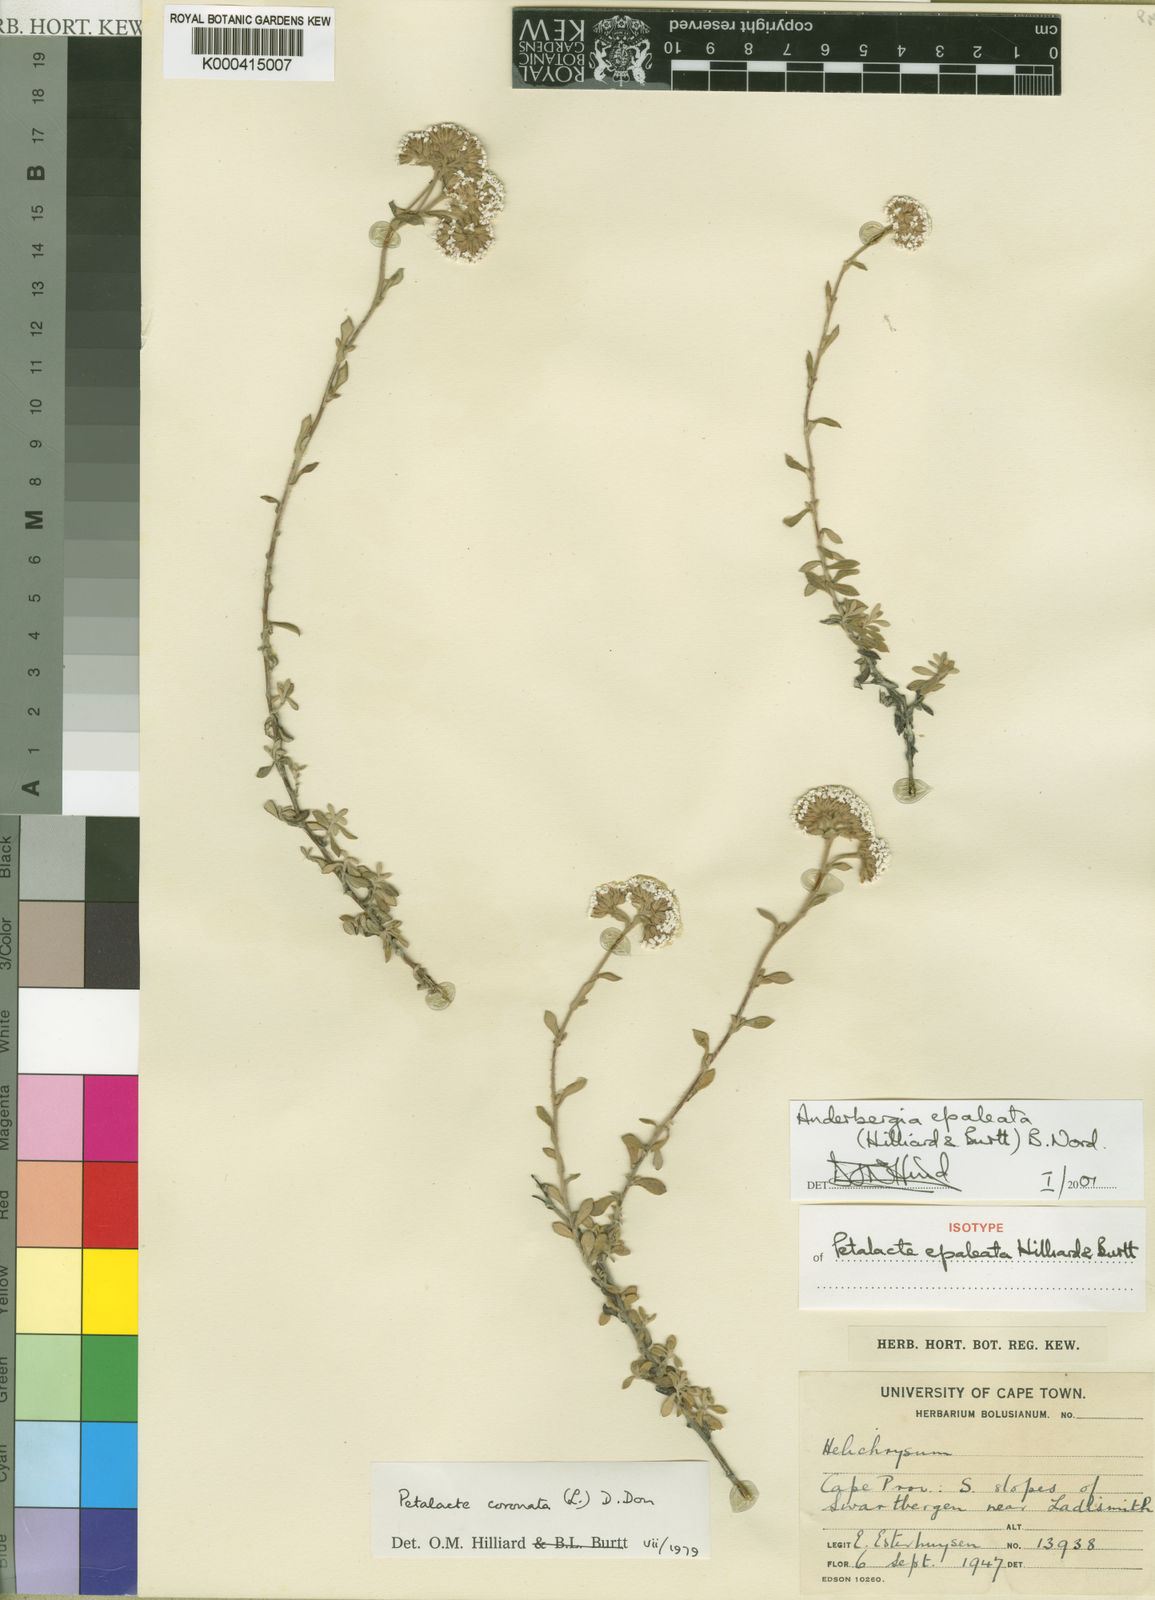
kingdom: Plantae
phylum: Tracheophyta
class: Magnoliopsida
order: Asterales
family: Asteraceae
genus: Anderbergia
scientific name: Anderbergia epaleata
